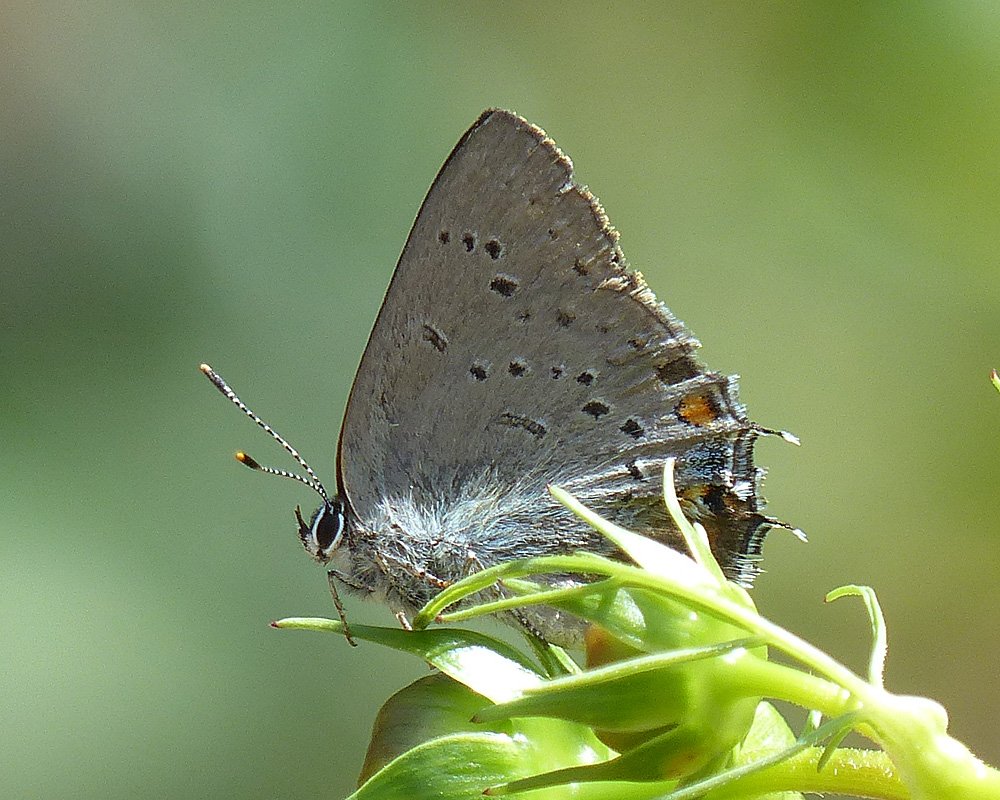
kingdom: Animalia
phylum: Arthropoda
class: Insecta
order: Lepidoptera
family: Lycaenidae
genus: Strymon
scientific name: Strymon sylvinus
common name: Sylvan Hairstreak
